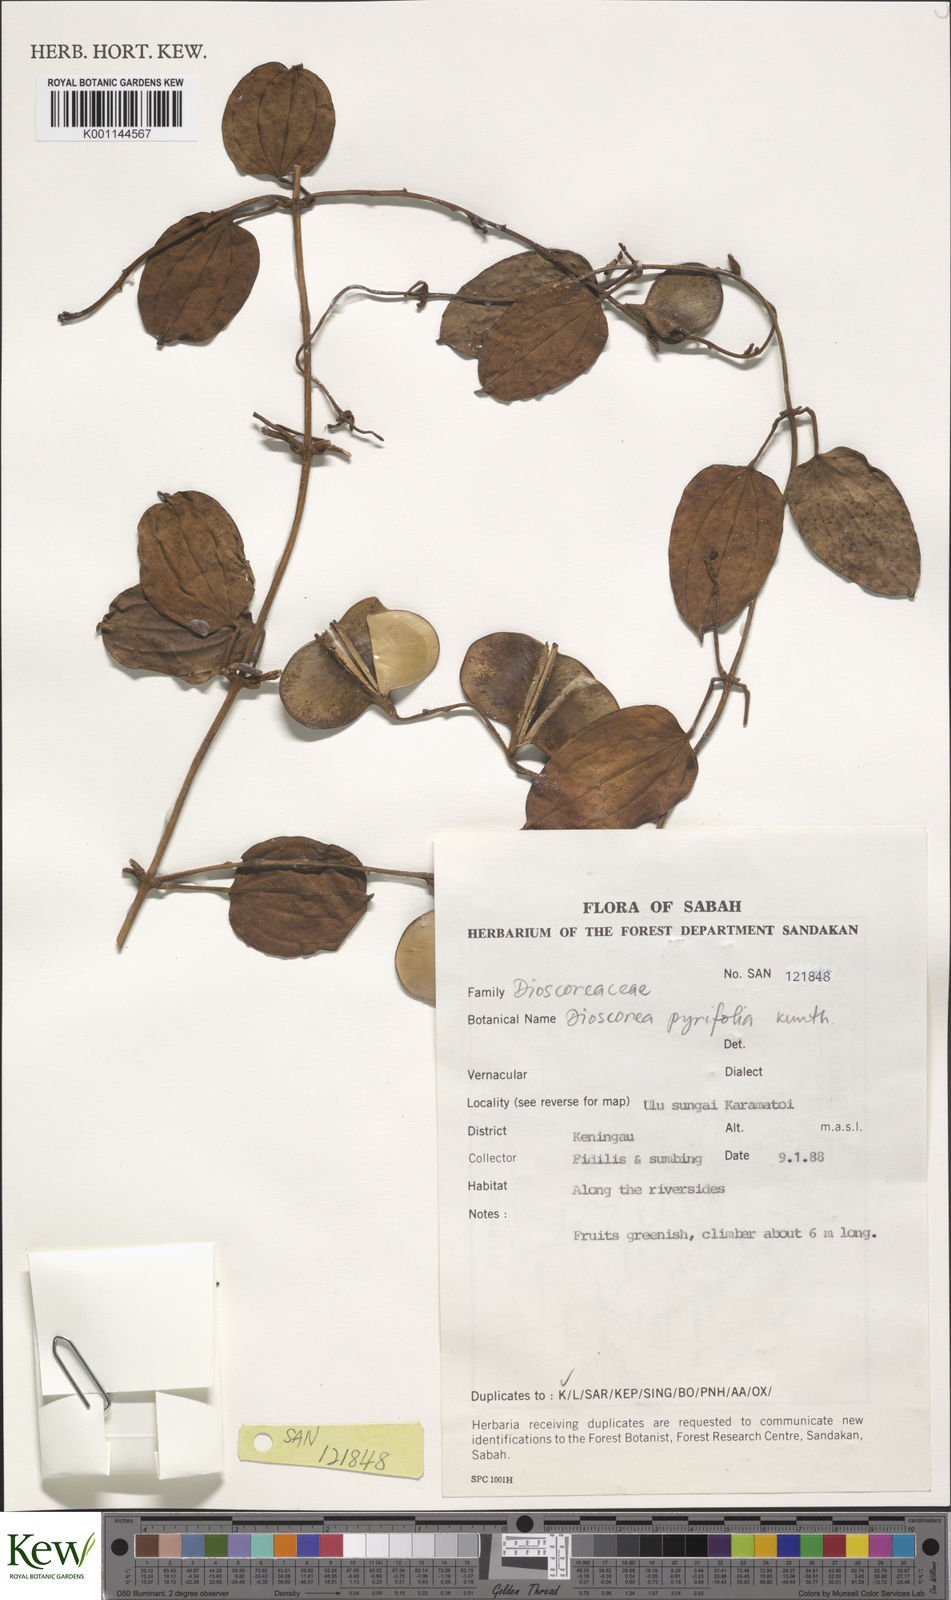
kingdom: Plantae
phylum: Tracheophyta
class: Liliopsida
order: Dioscoreales
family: Dioscoreaceae
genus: Dioscorea
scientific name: Dioscorea pyrifolia
